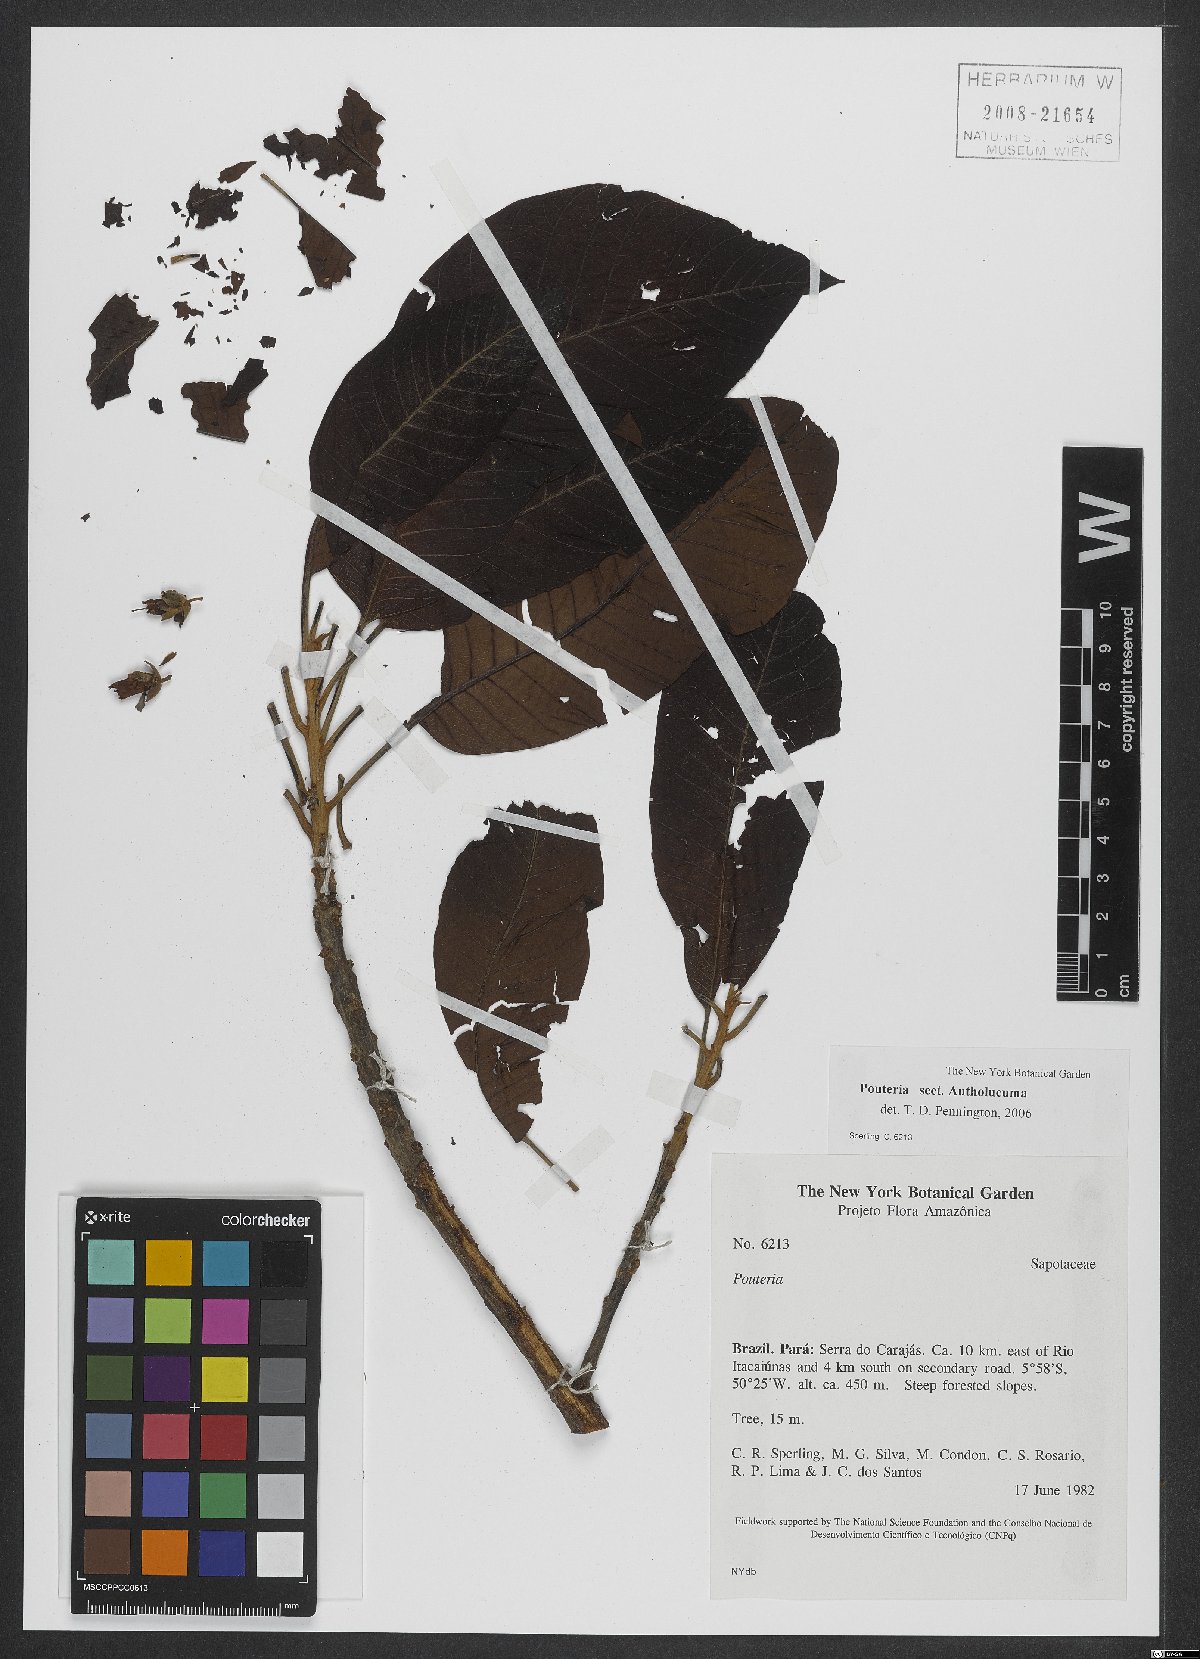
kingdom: Plantae
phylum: Tracheophyta
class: Magnoliopsida
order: Ericales
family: Sapotaceae
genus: Pouteria
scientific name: Pouteria
